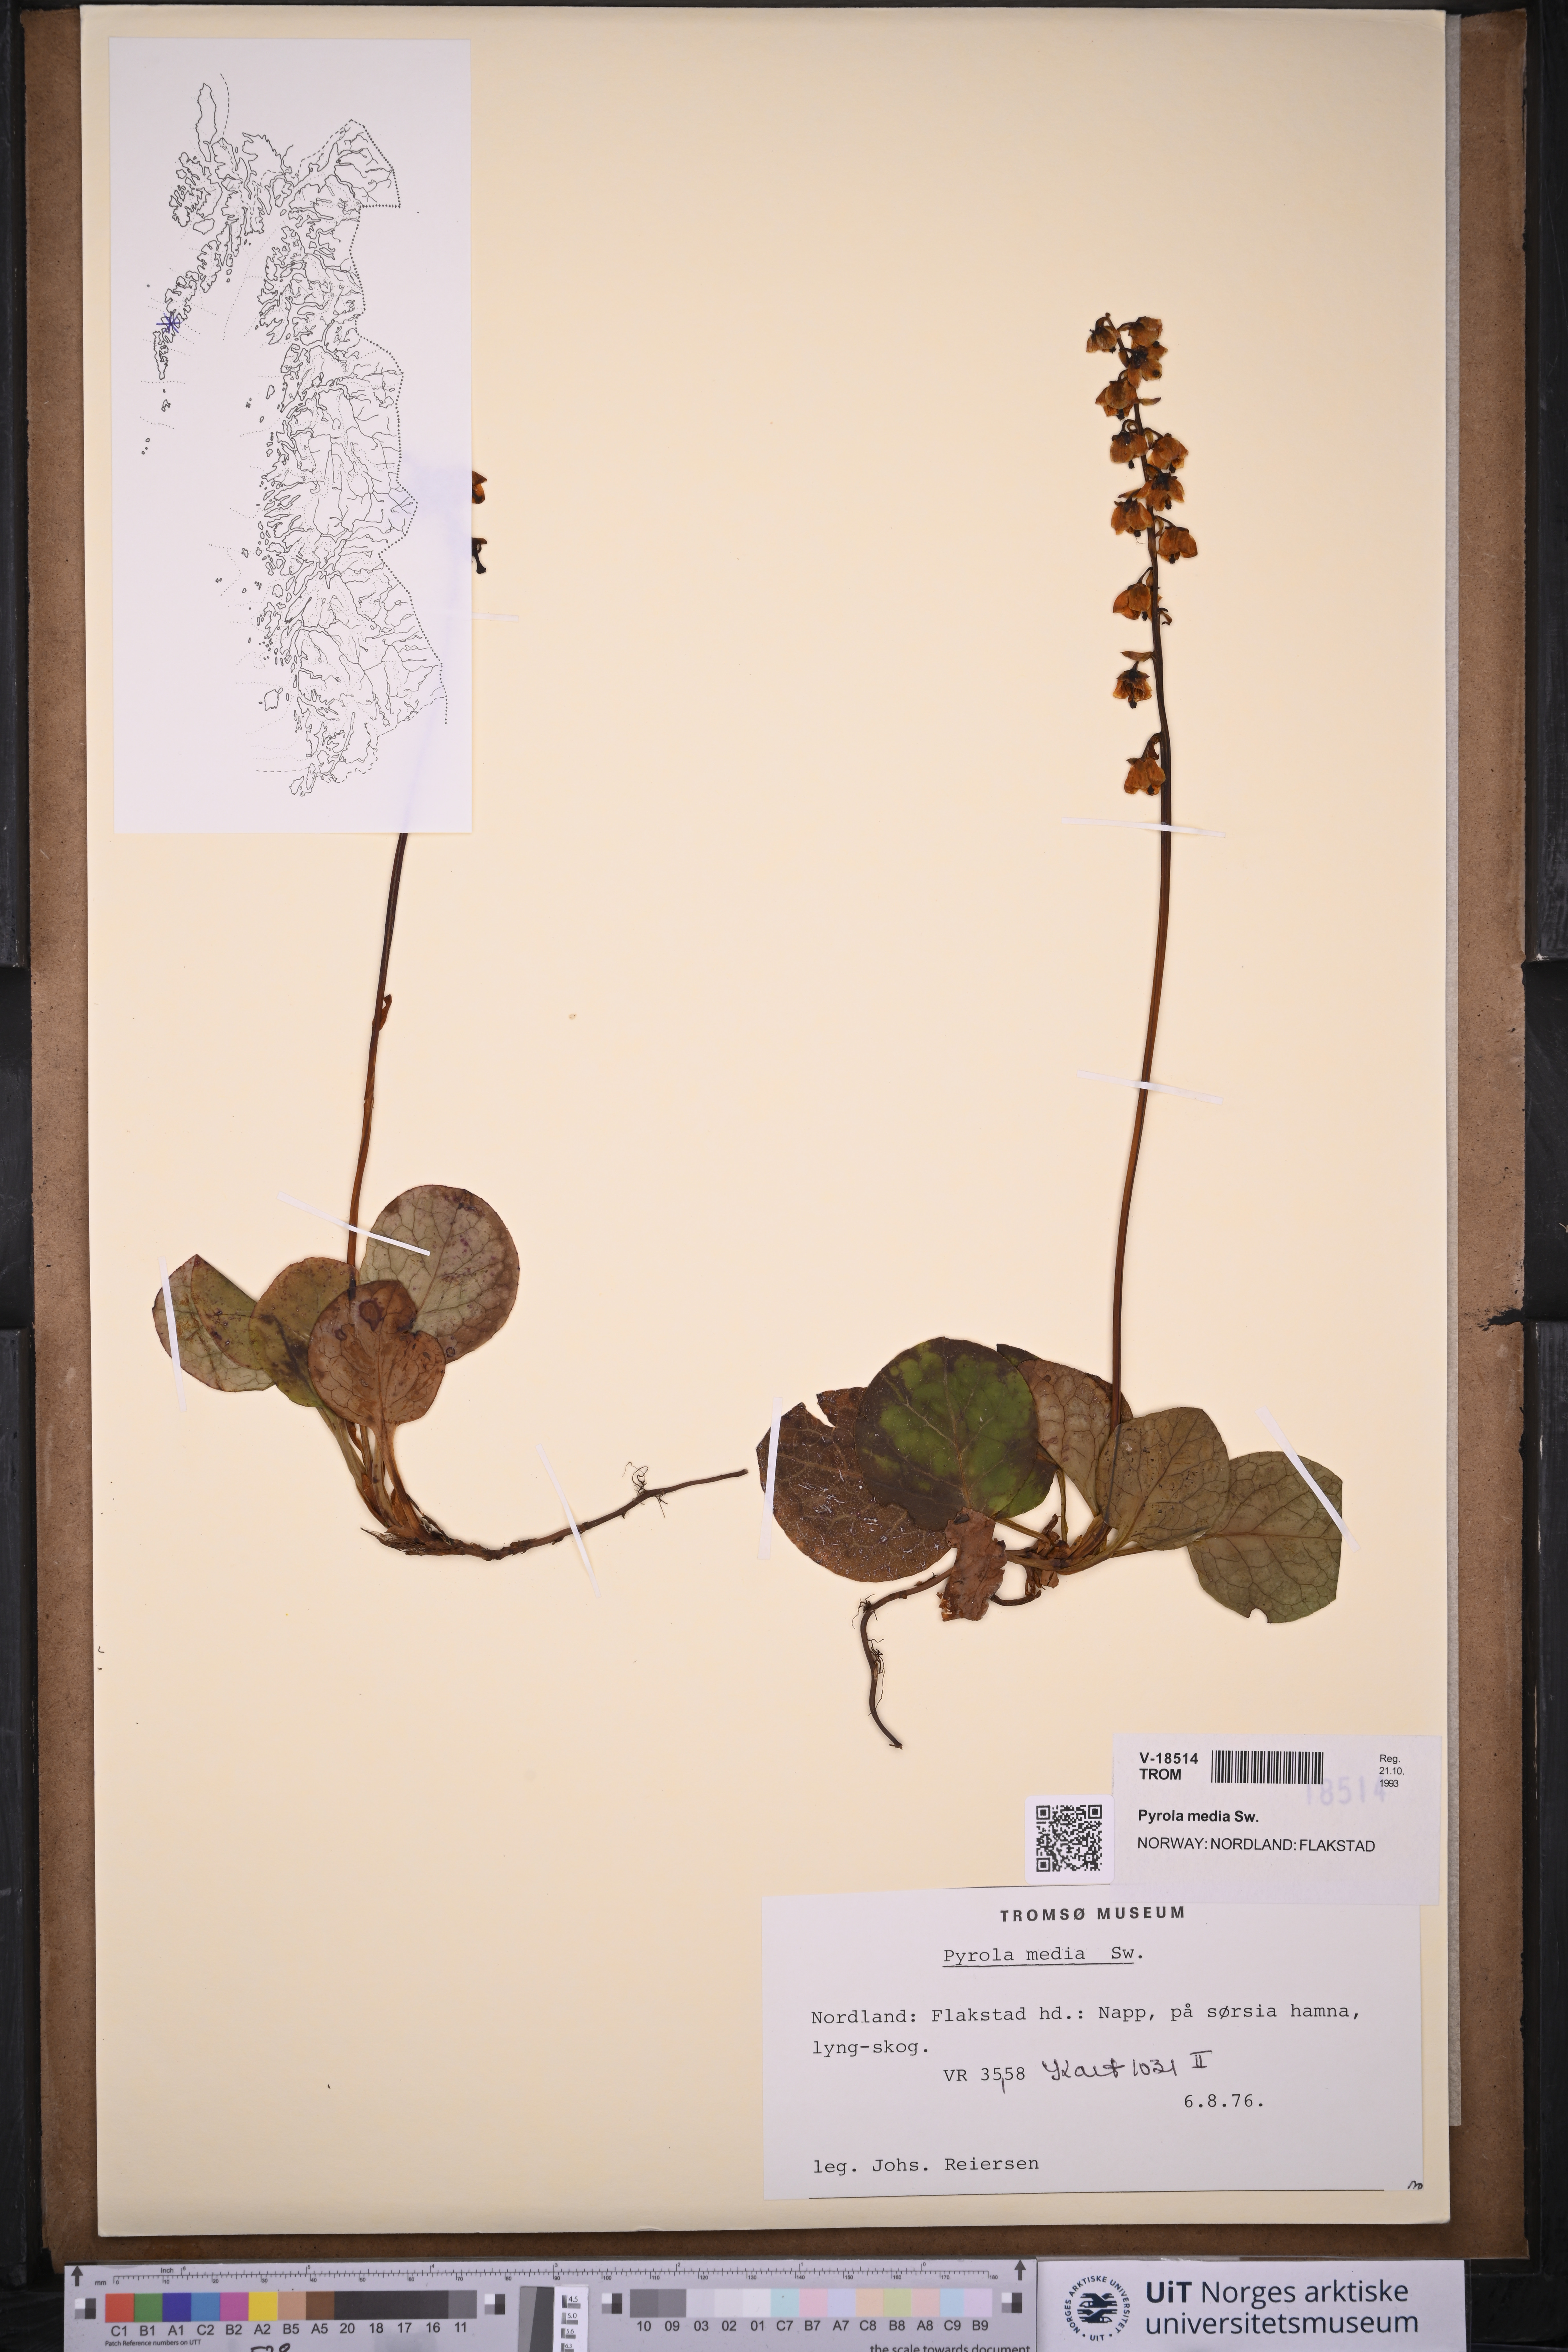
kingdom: Plantae
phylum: Tracheophyta
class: Magnoliopsida
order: Ericales
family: Ericaceae
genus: Pyrola
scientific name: Pyrola media
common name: Intermediate wintergreen
